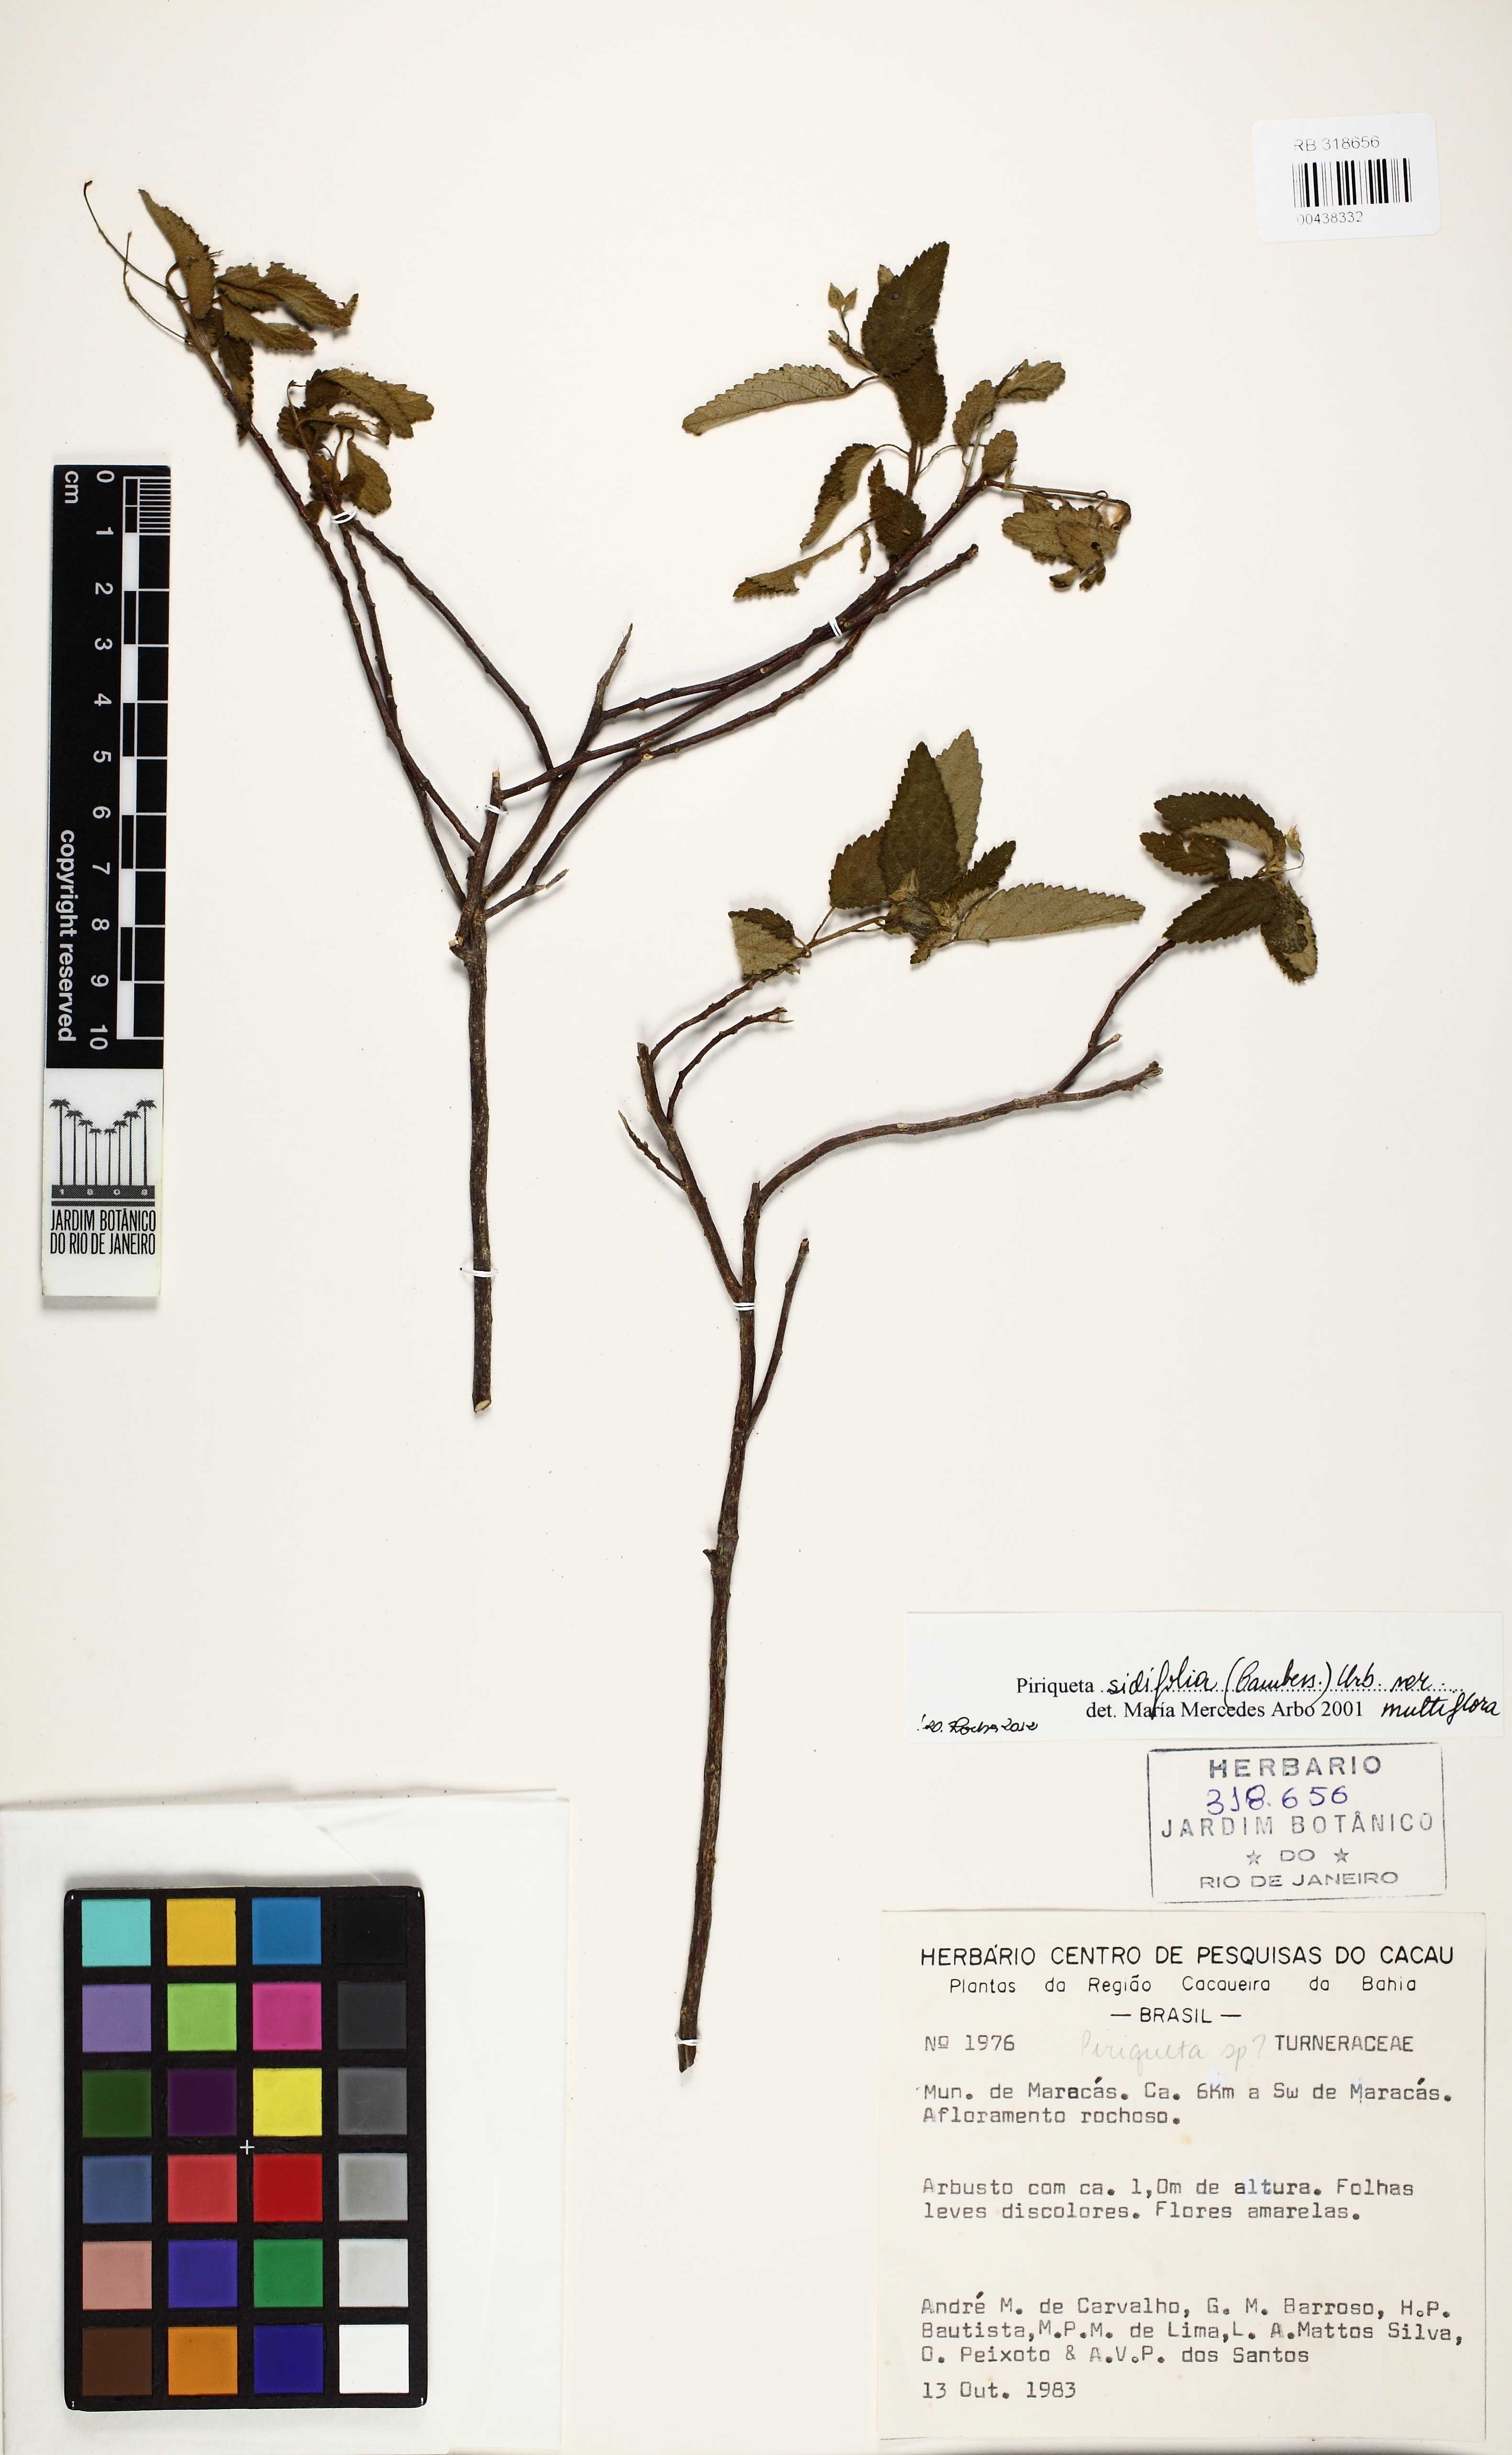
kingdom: Plantae
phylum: Tracheophyta
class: Magnoliopsida
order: Malpighiales
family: Turneraceae
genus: Piriqueta
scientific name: Piriqueta sidifolia
